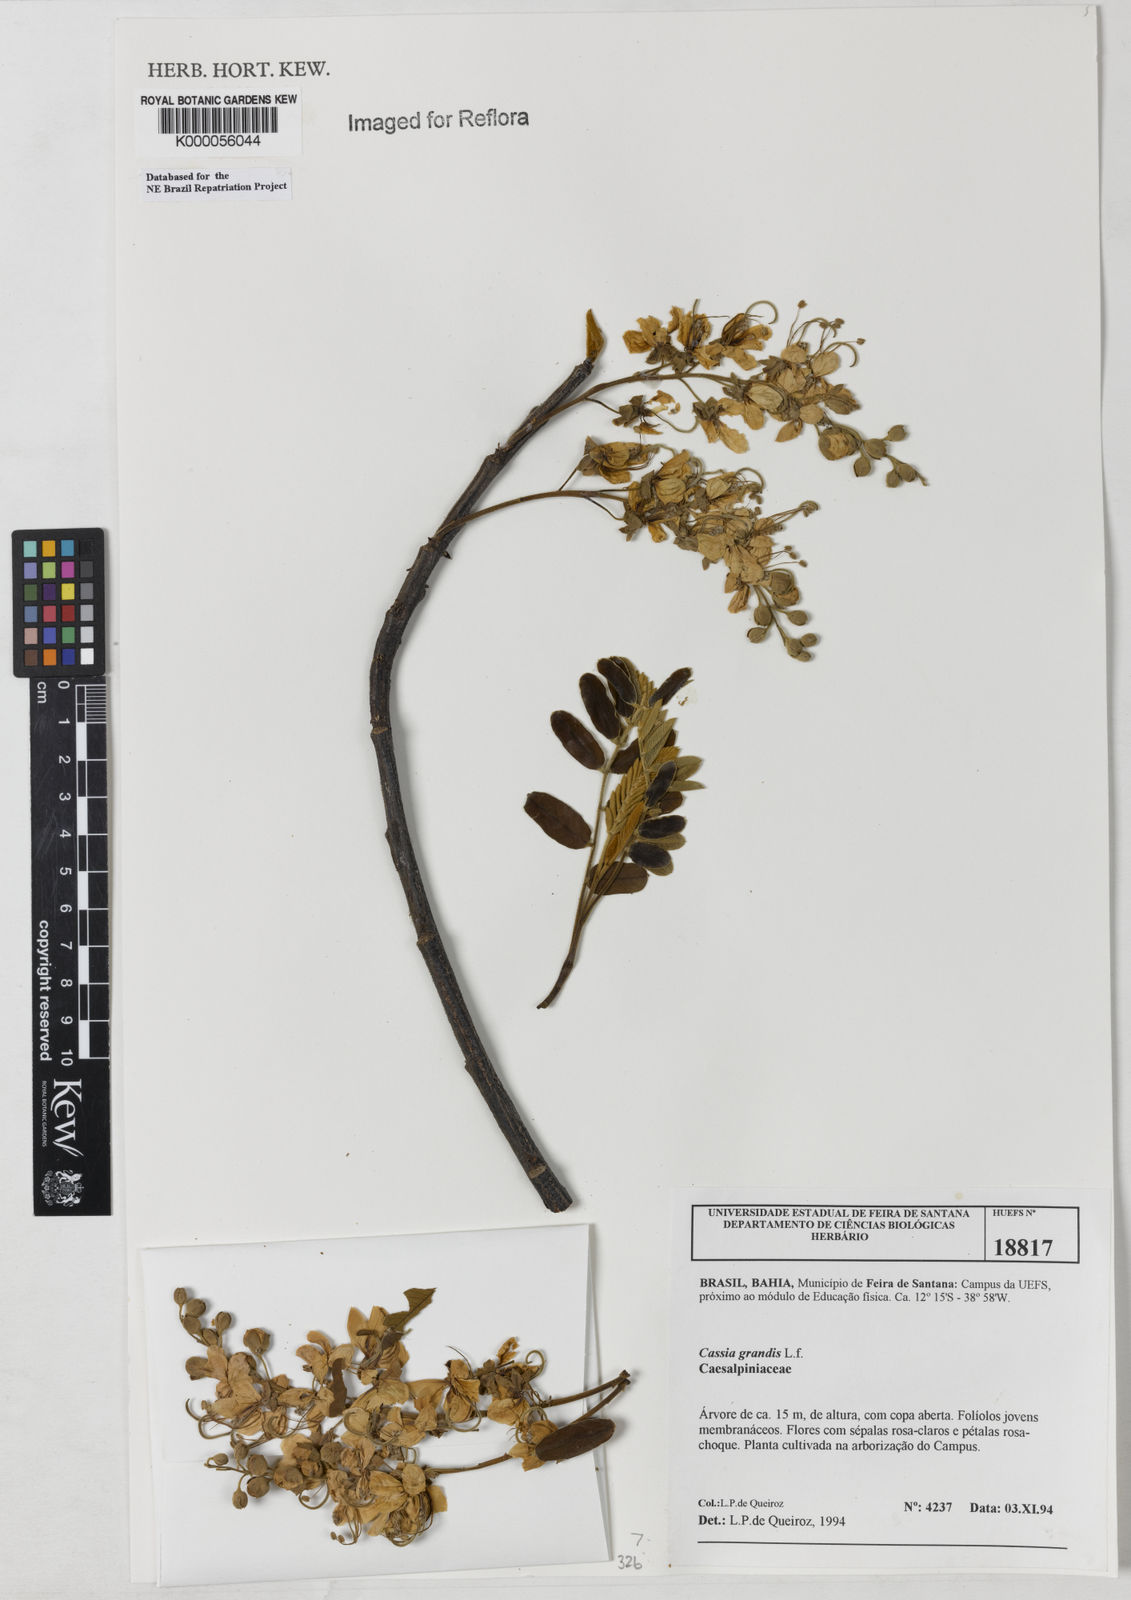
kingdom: Plantae
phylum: Tracheophyta
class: Magnoliopsida
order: Fabales
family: Fabaceae
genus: Cassia
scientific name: Cassia grandis
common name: Appleblossom cassia
